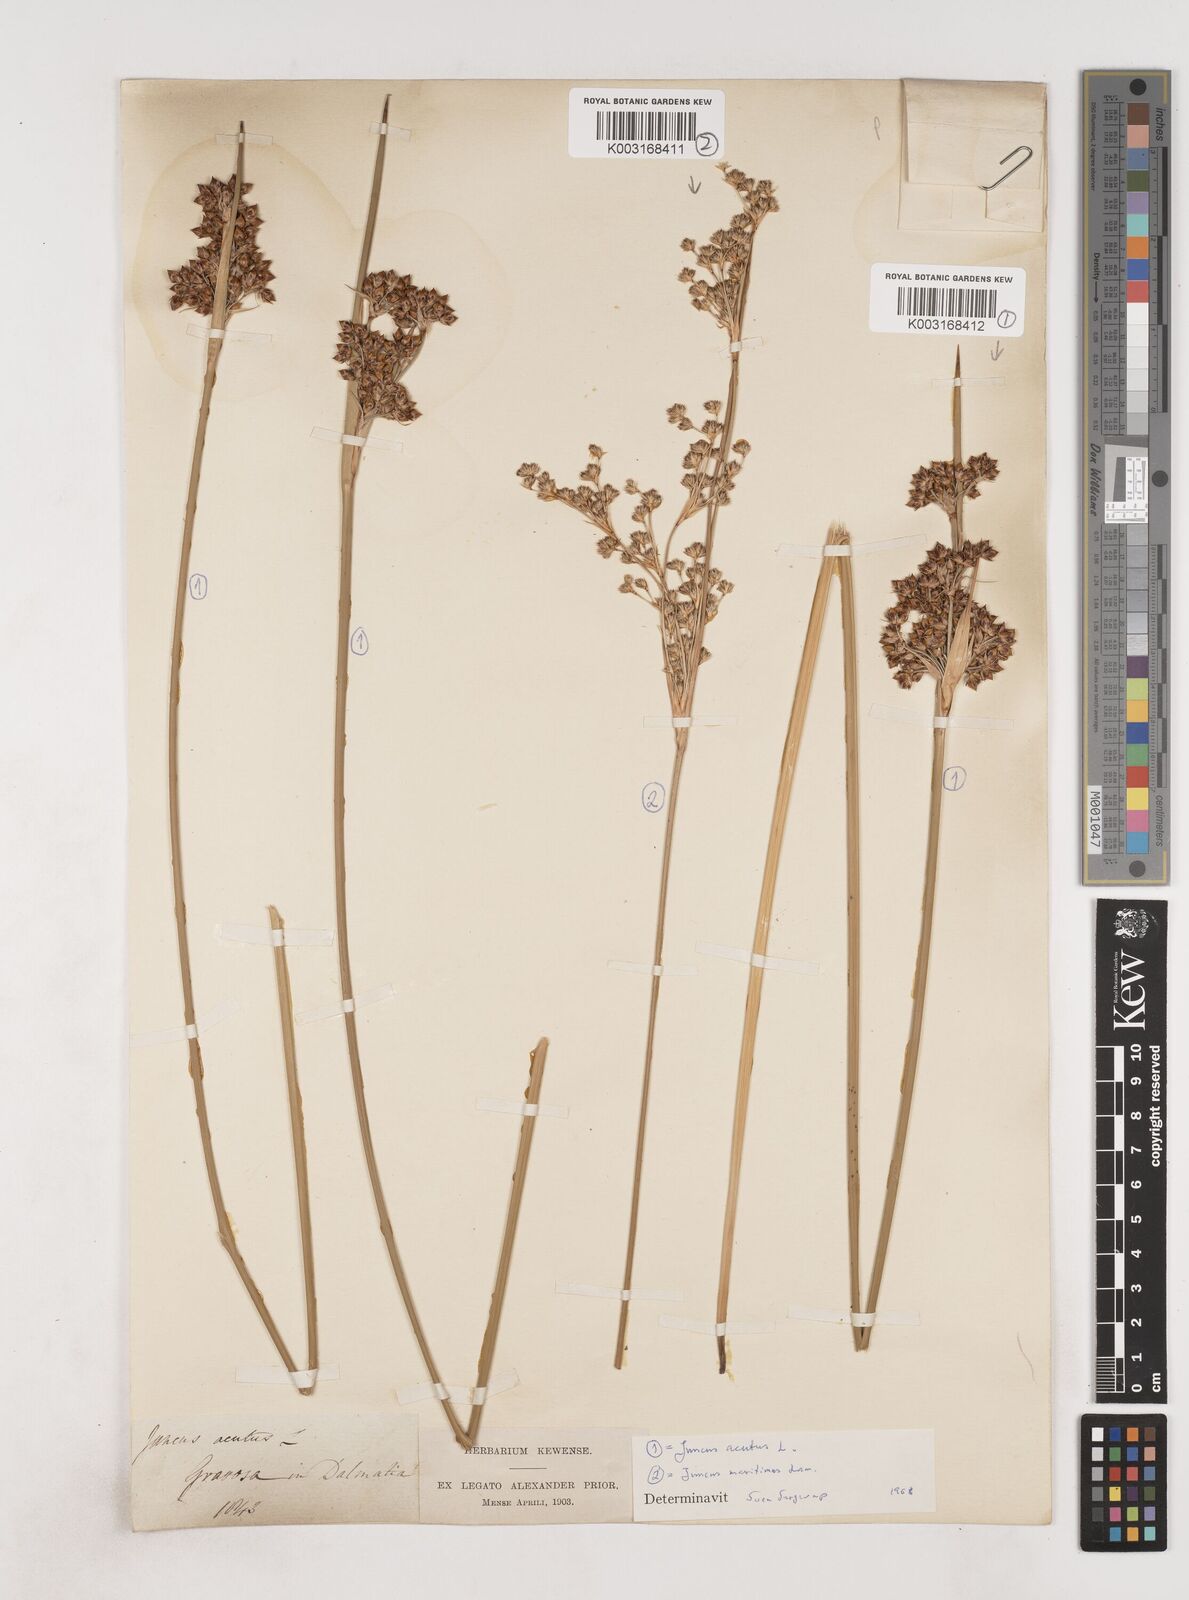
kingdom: Plantae
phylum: Tracheophyta
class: Liliopsida
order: Poales
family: Juncaceae
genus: Juncus
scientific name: Juncus acutus
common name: Sharp rush
